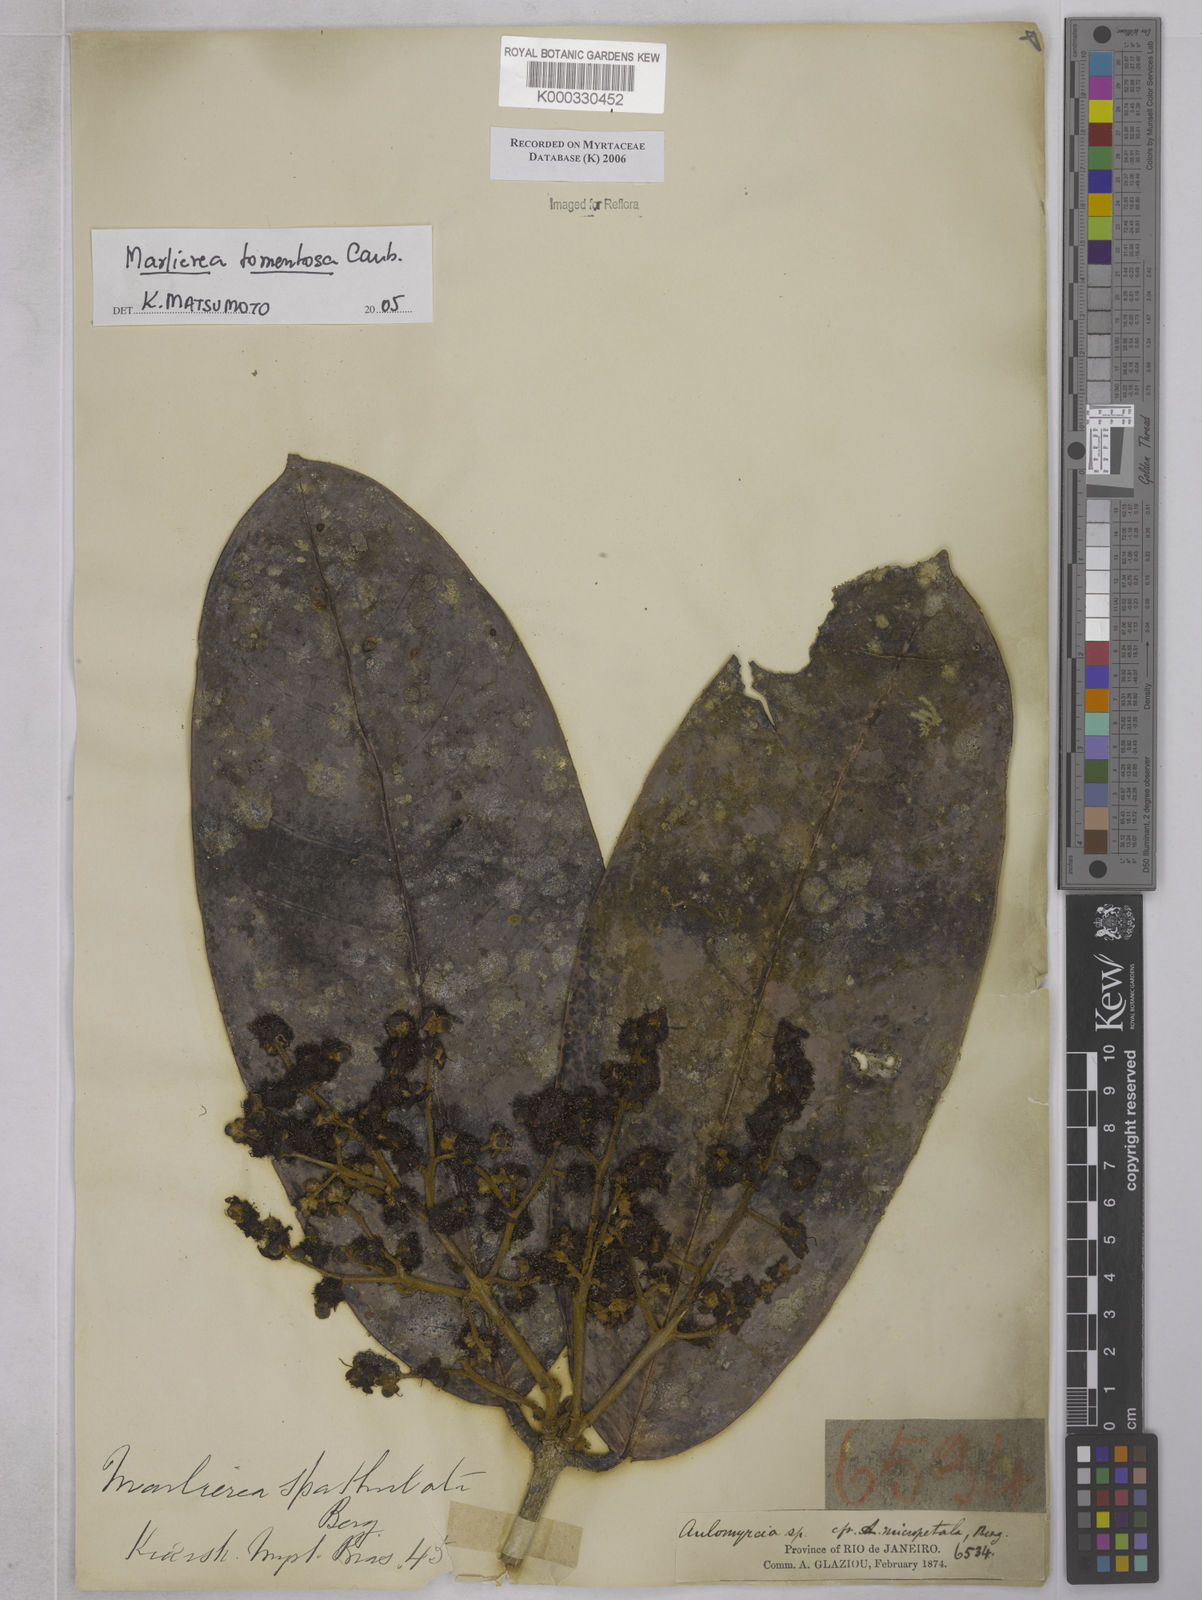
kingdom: Plantae
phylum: Tracheophyta
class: Magnoliopsida
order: Myrtales
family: Myrtaceae
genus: Myrcia
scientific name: Myrcia neotomentosa
